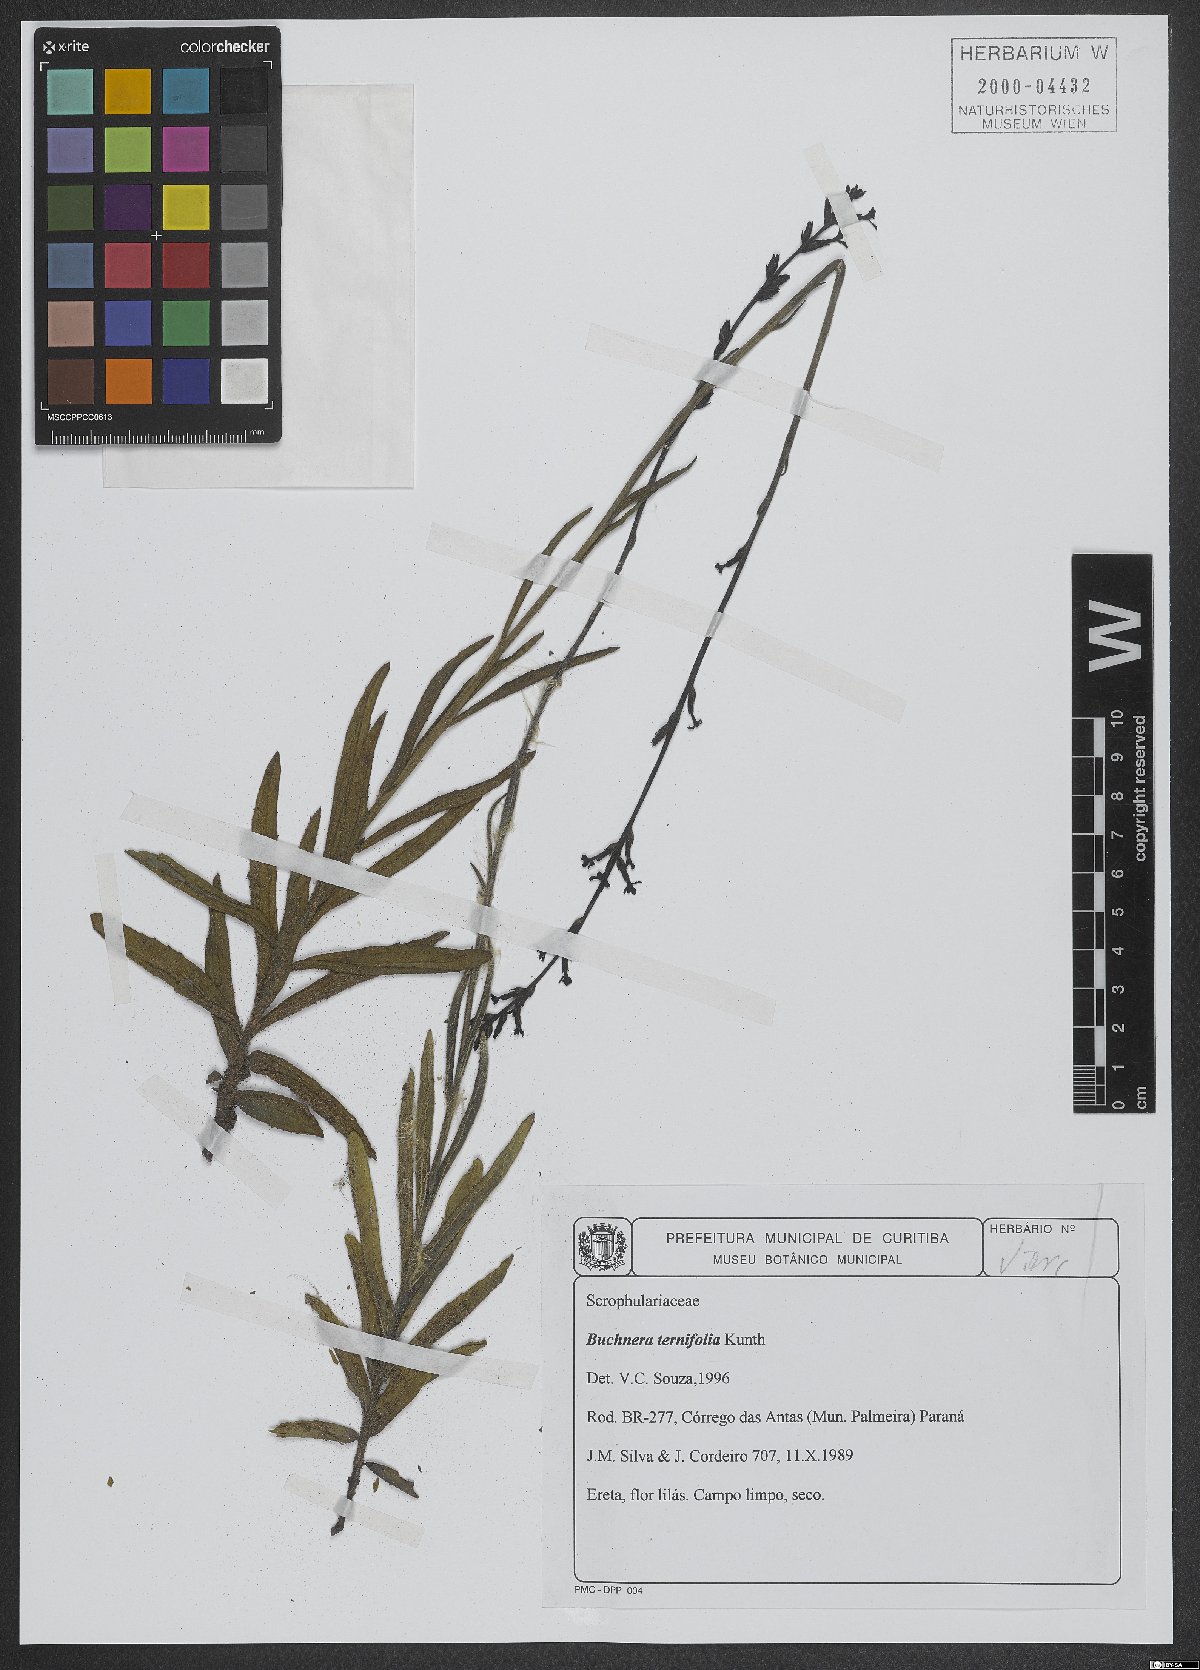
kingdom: Plantae
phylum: Tracheophyta
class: Magnoliopsida
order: Lamiales
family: Orobanchaceae
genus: Buchnera
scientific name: Buchnera ternifolia
